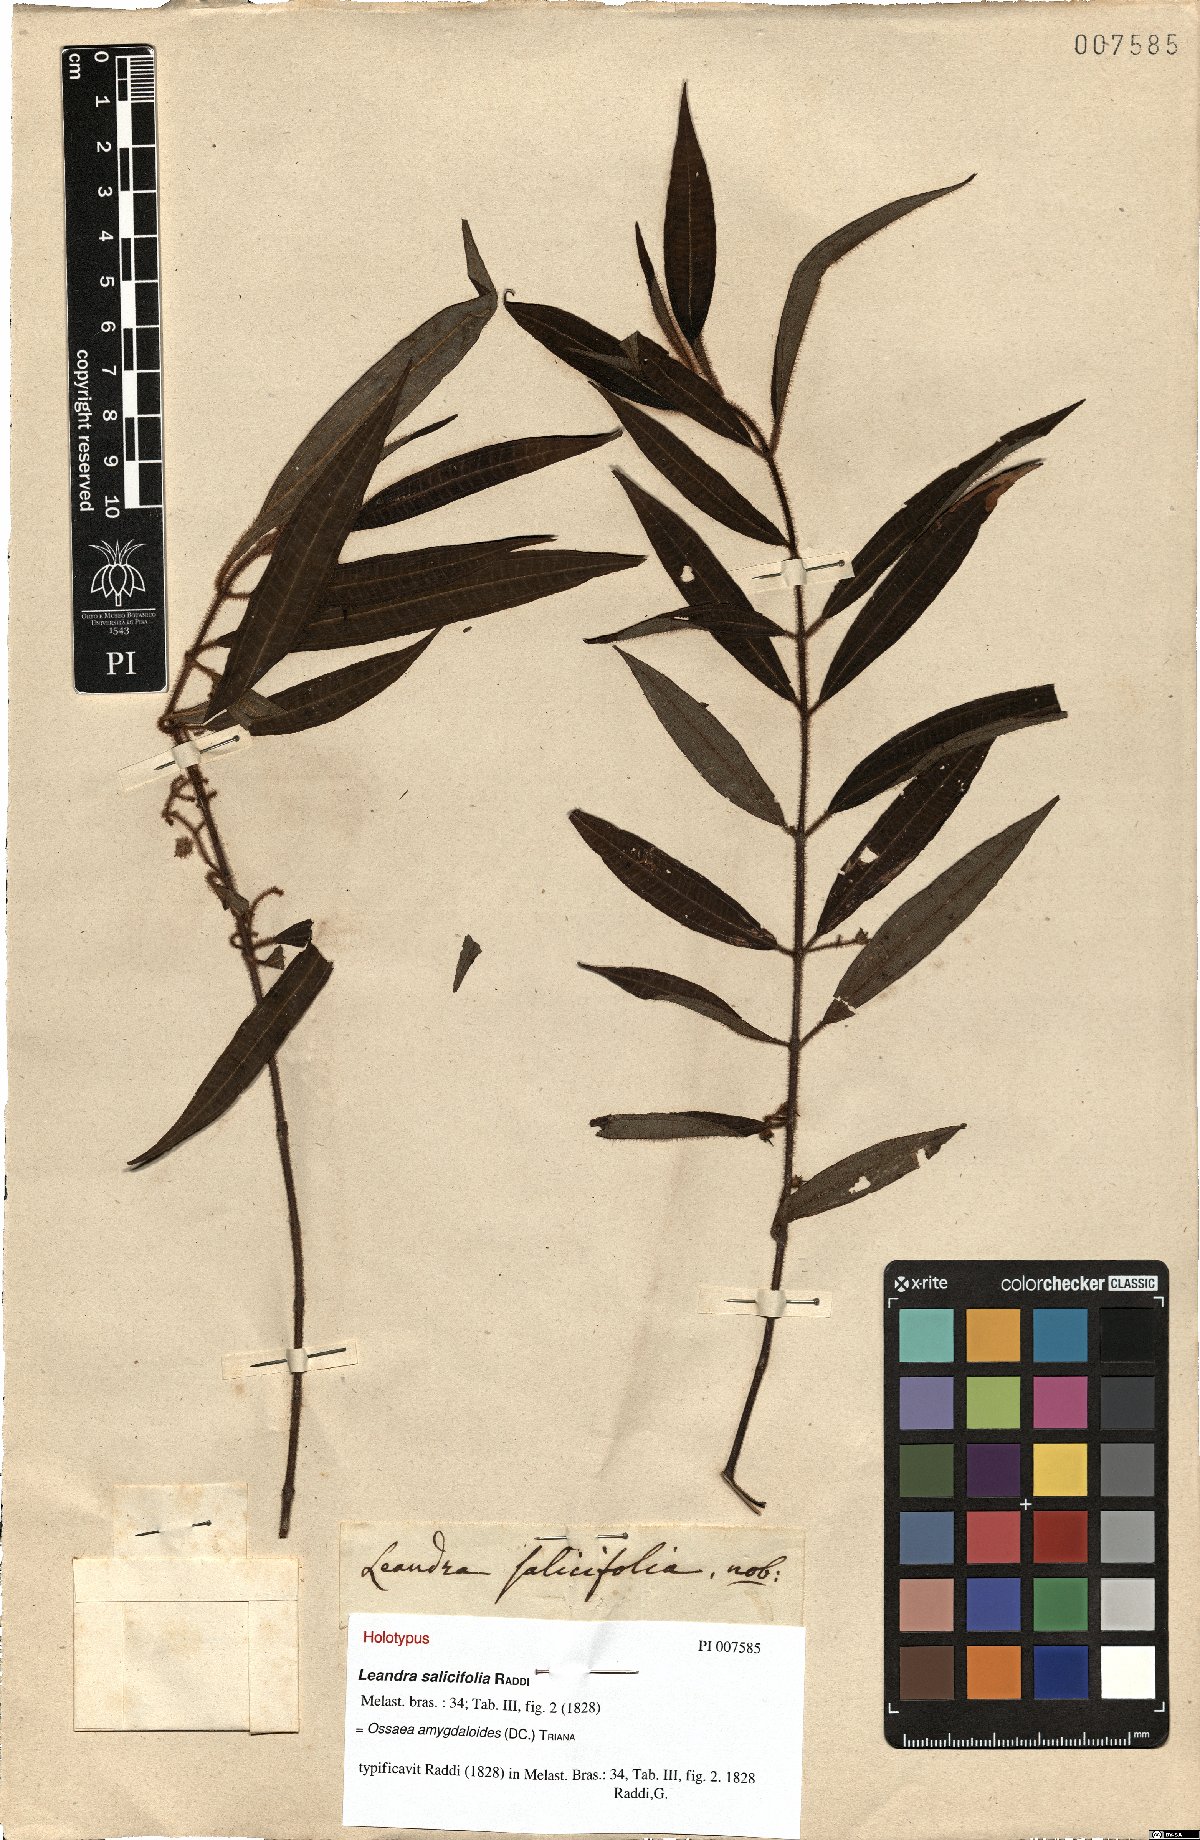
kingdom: Plantae
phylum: Tracheophyta
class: Magnoliopsida
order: Myrtales
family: Melastomataceae
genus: Miconia
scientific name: Miconia amygdaloides
